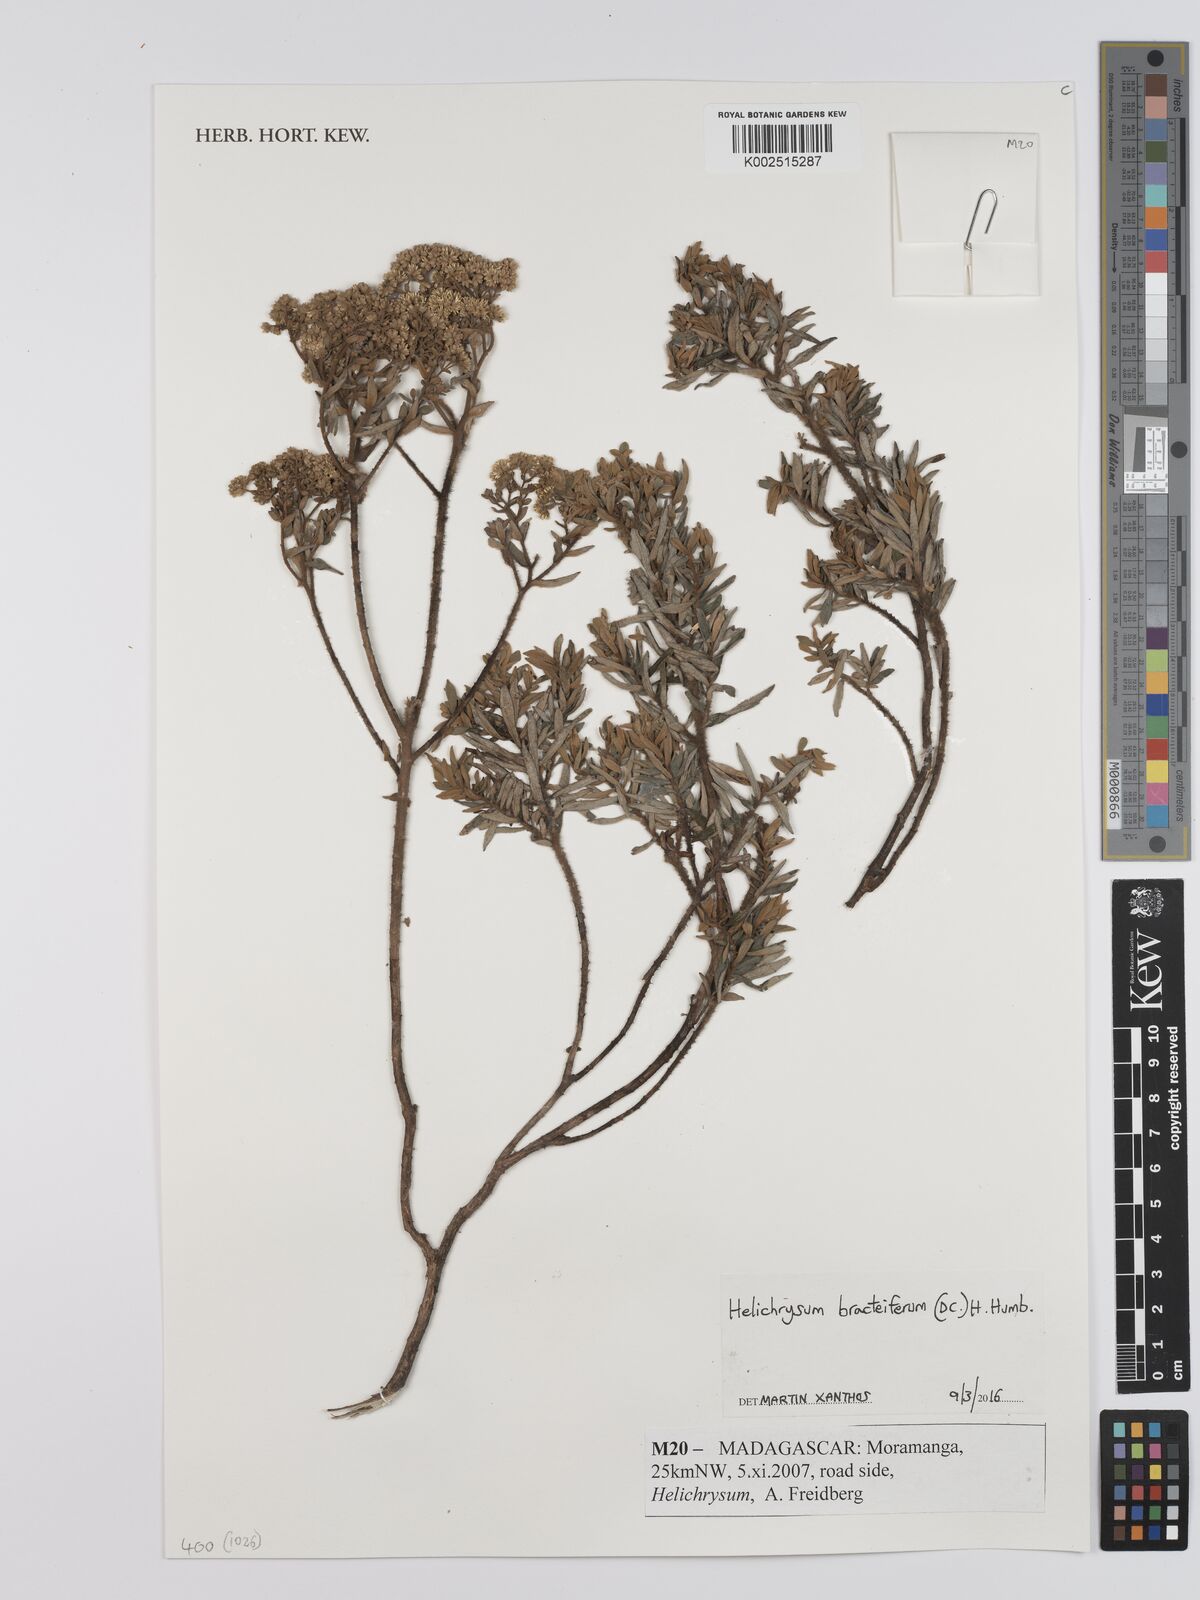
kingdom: Plantae
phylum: Tracheophyta
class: Magnoliopsida
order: Asterales
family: Asteraceae
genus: Helichrysum
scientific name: Helichrysum bracteiferum
